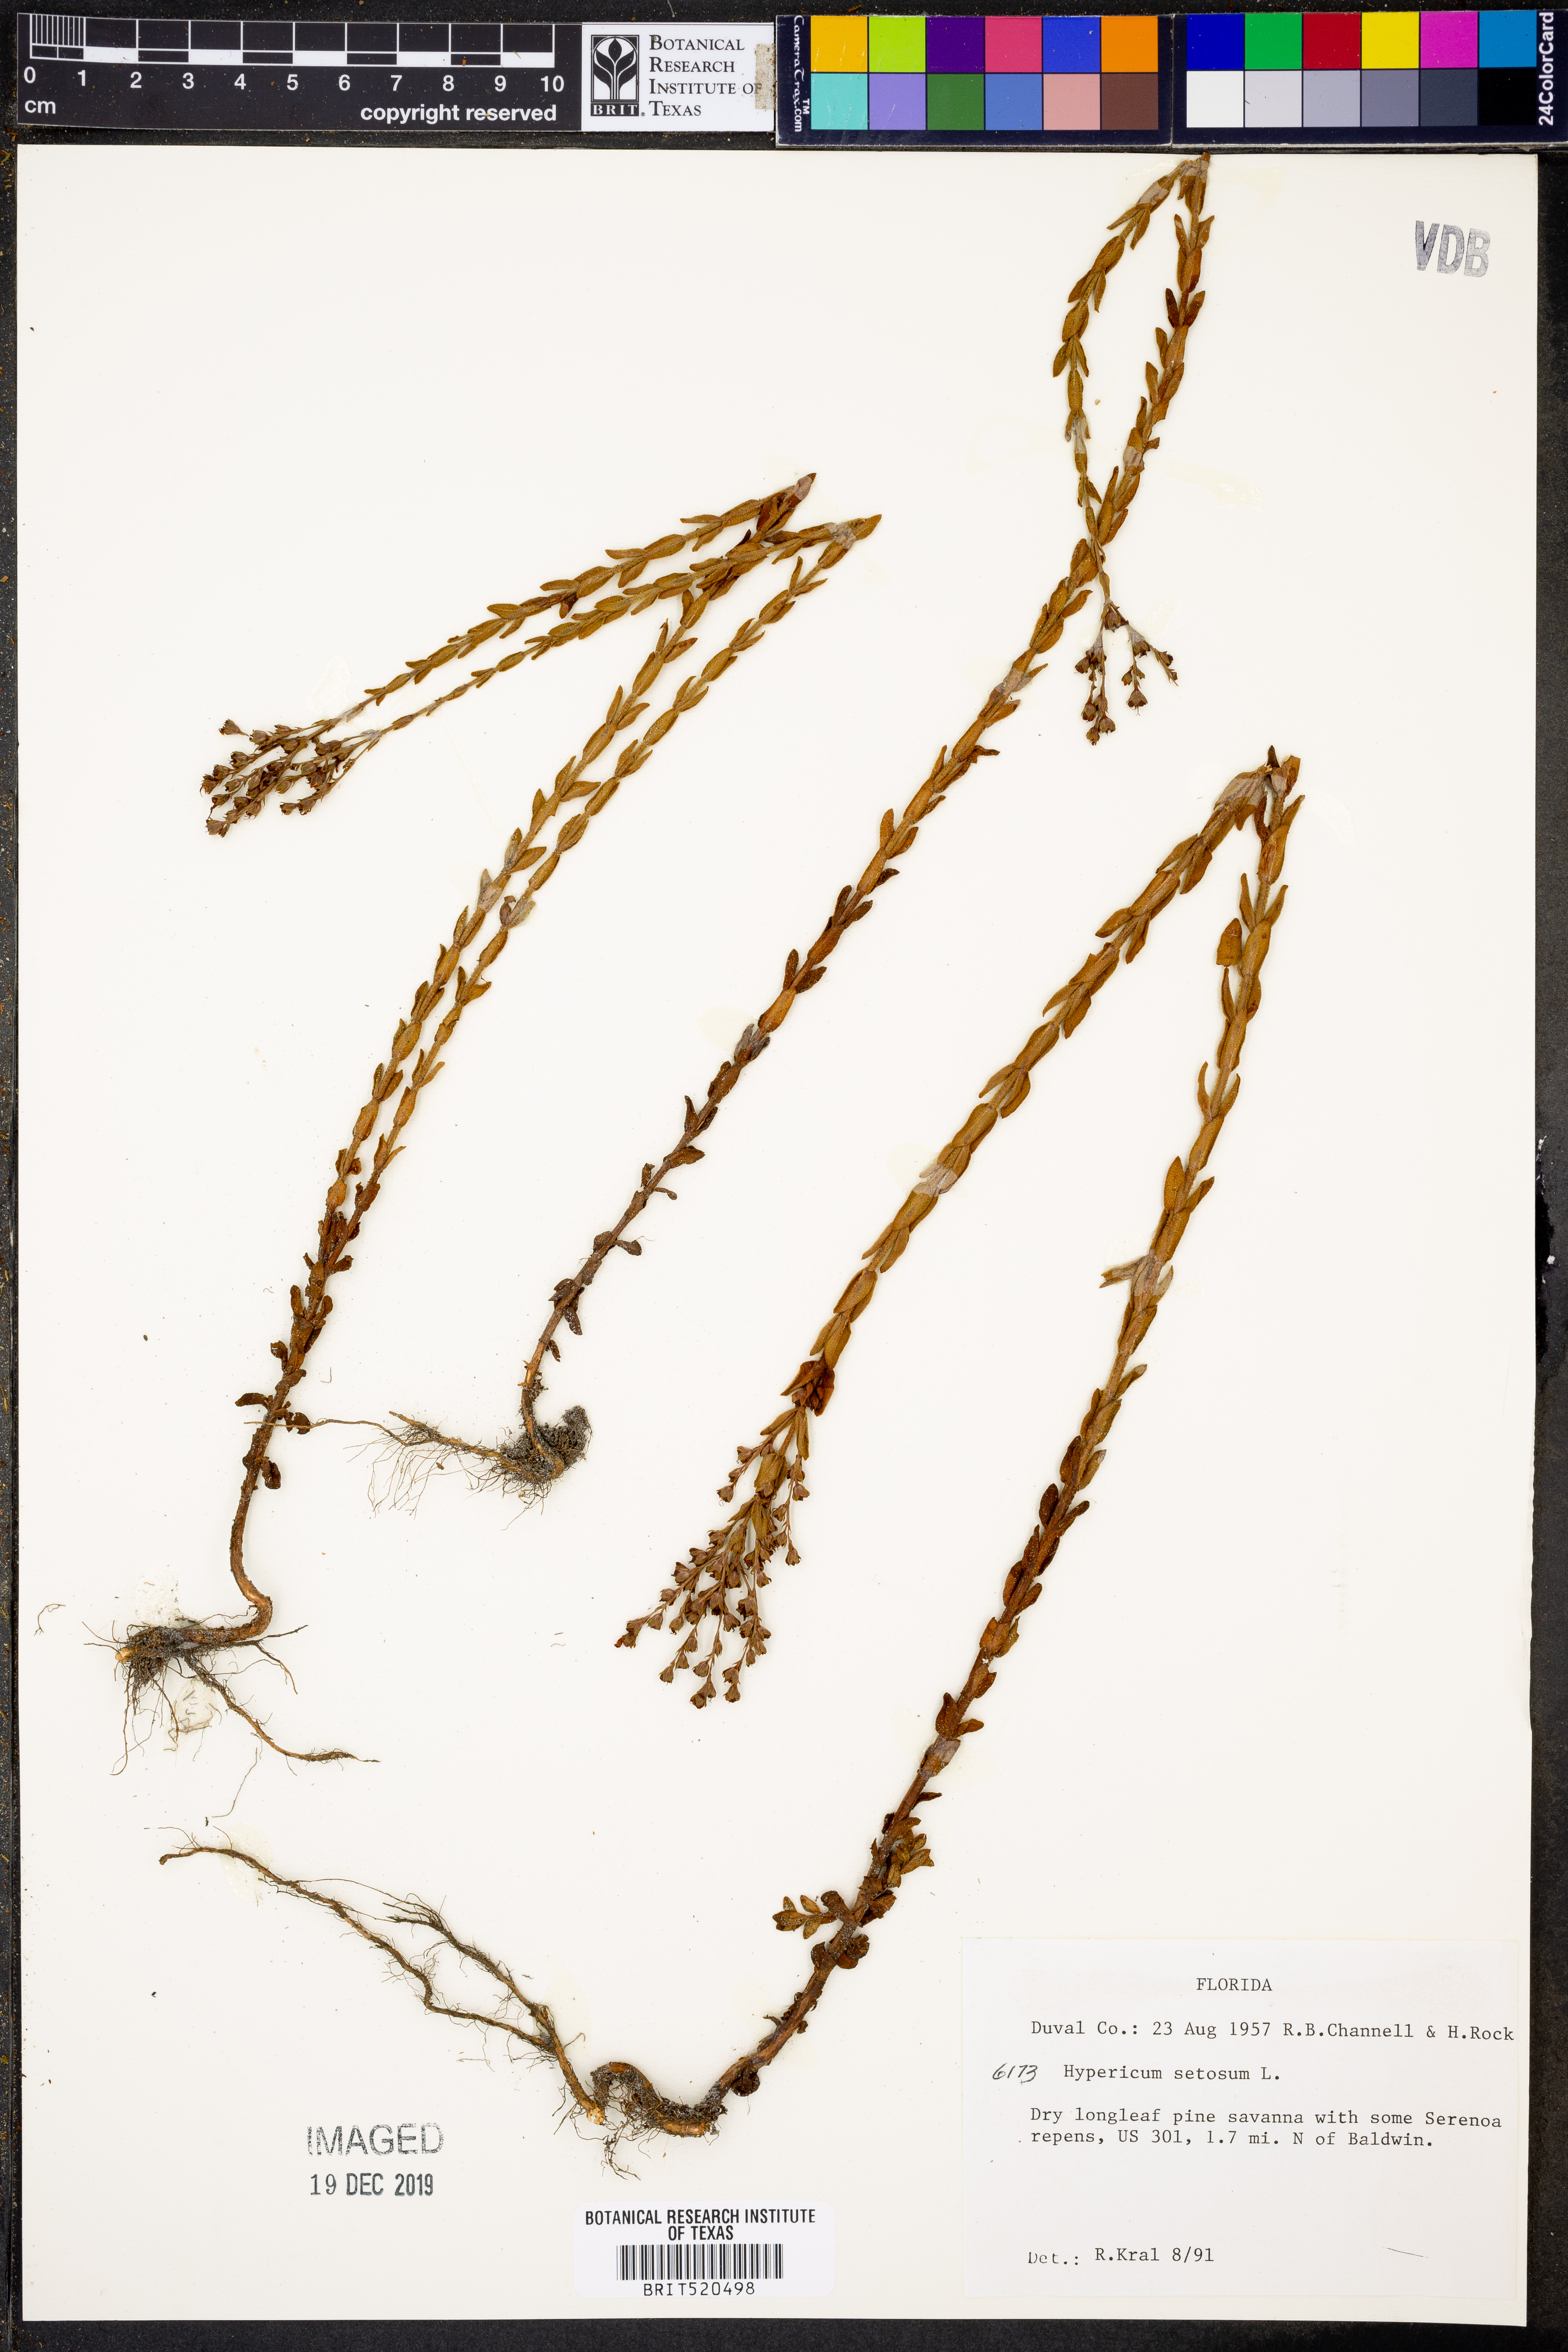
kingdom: Plantae
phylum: Tracheophyta
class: Magnoliopsida
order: Malpighiales
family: Hypericaceae
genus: Hypericum
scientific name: Hypericum setosum
